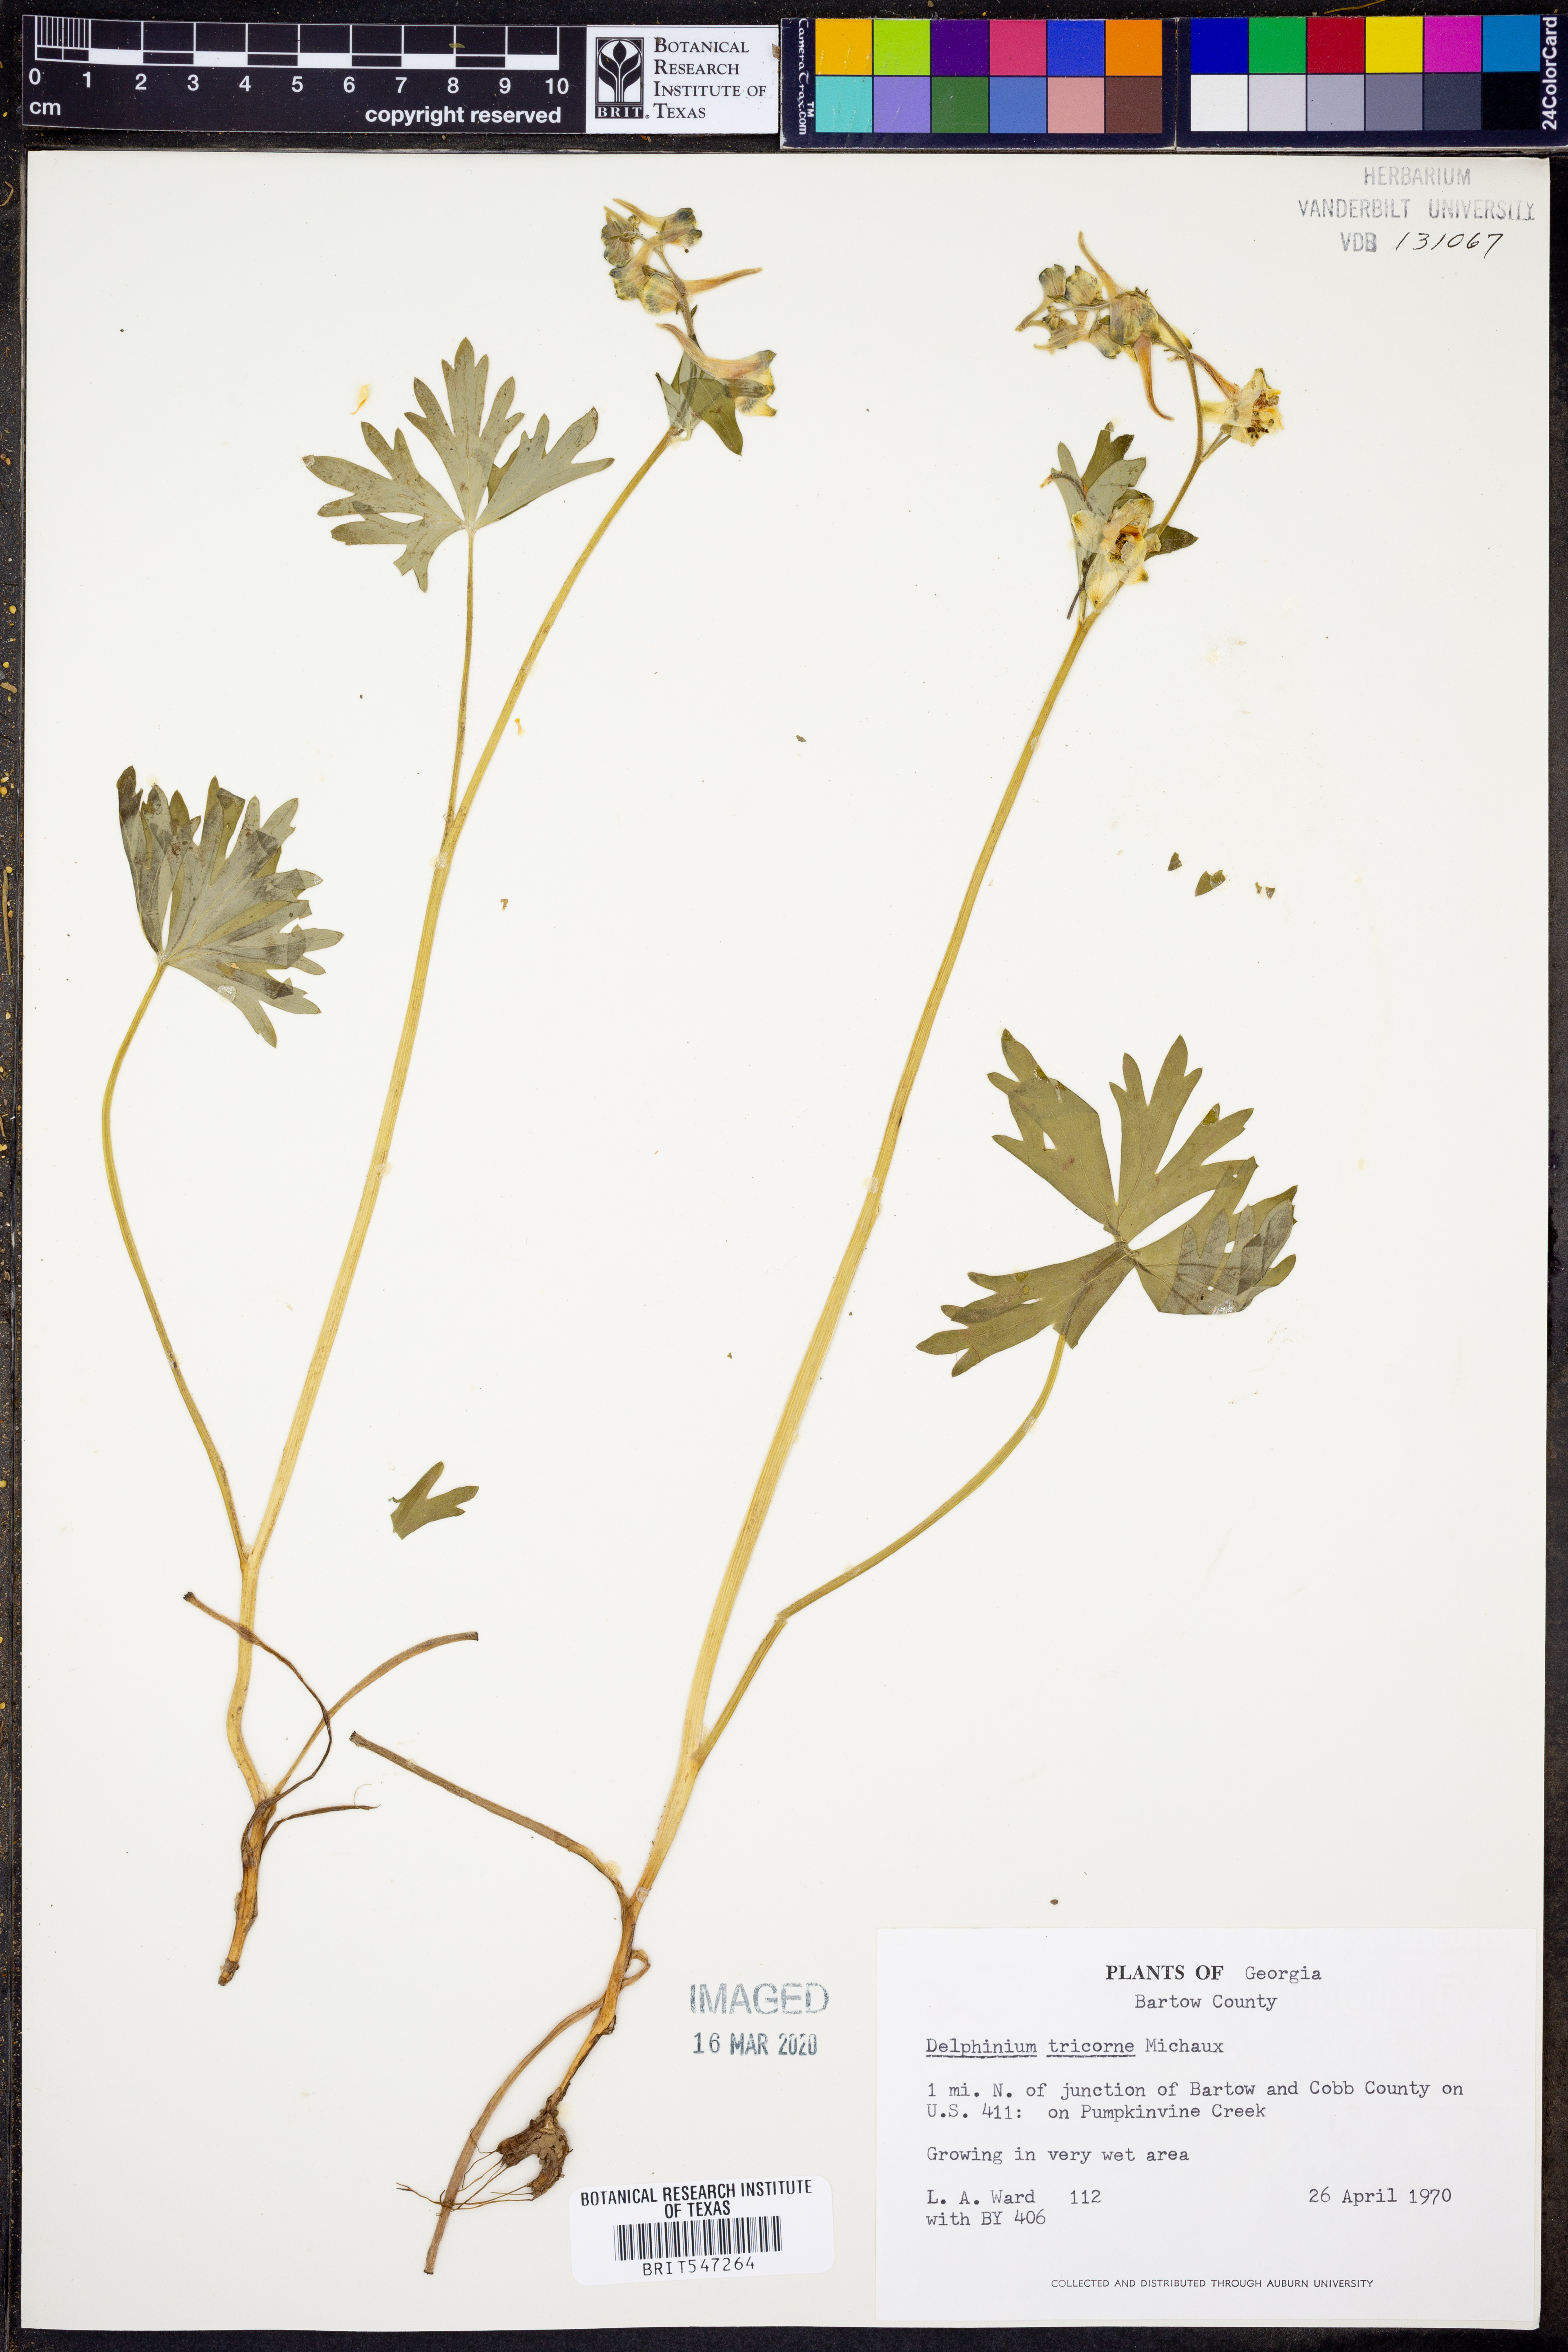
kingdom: Plantae
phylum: Tracheophyta
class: Magnoliopsida
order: Ranunculales
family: Ranunculaceae
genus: Delphinium
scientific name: Delphinium tricorne
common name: Dwarf larkspur
